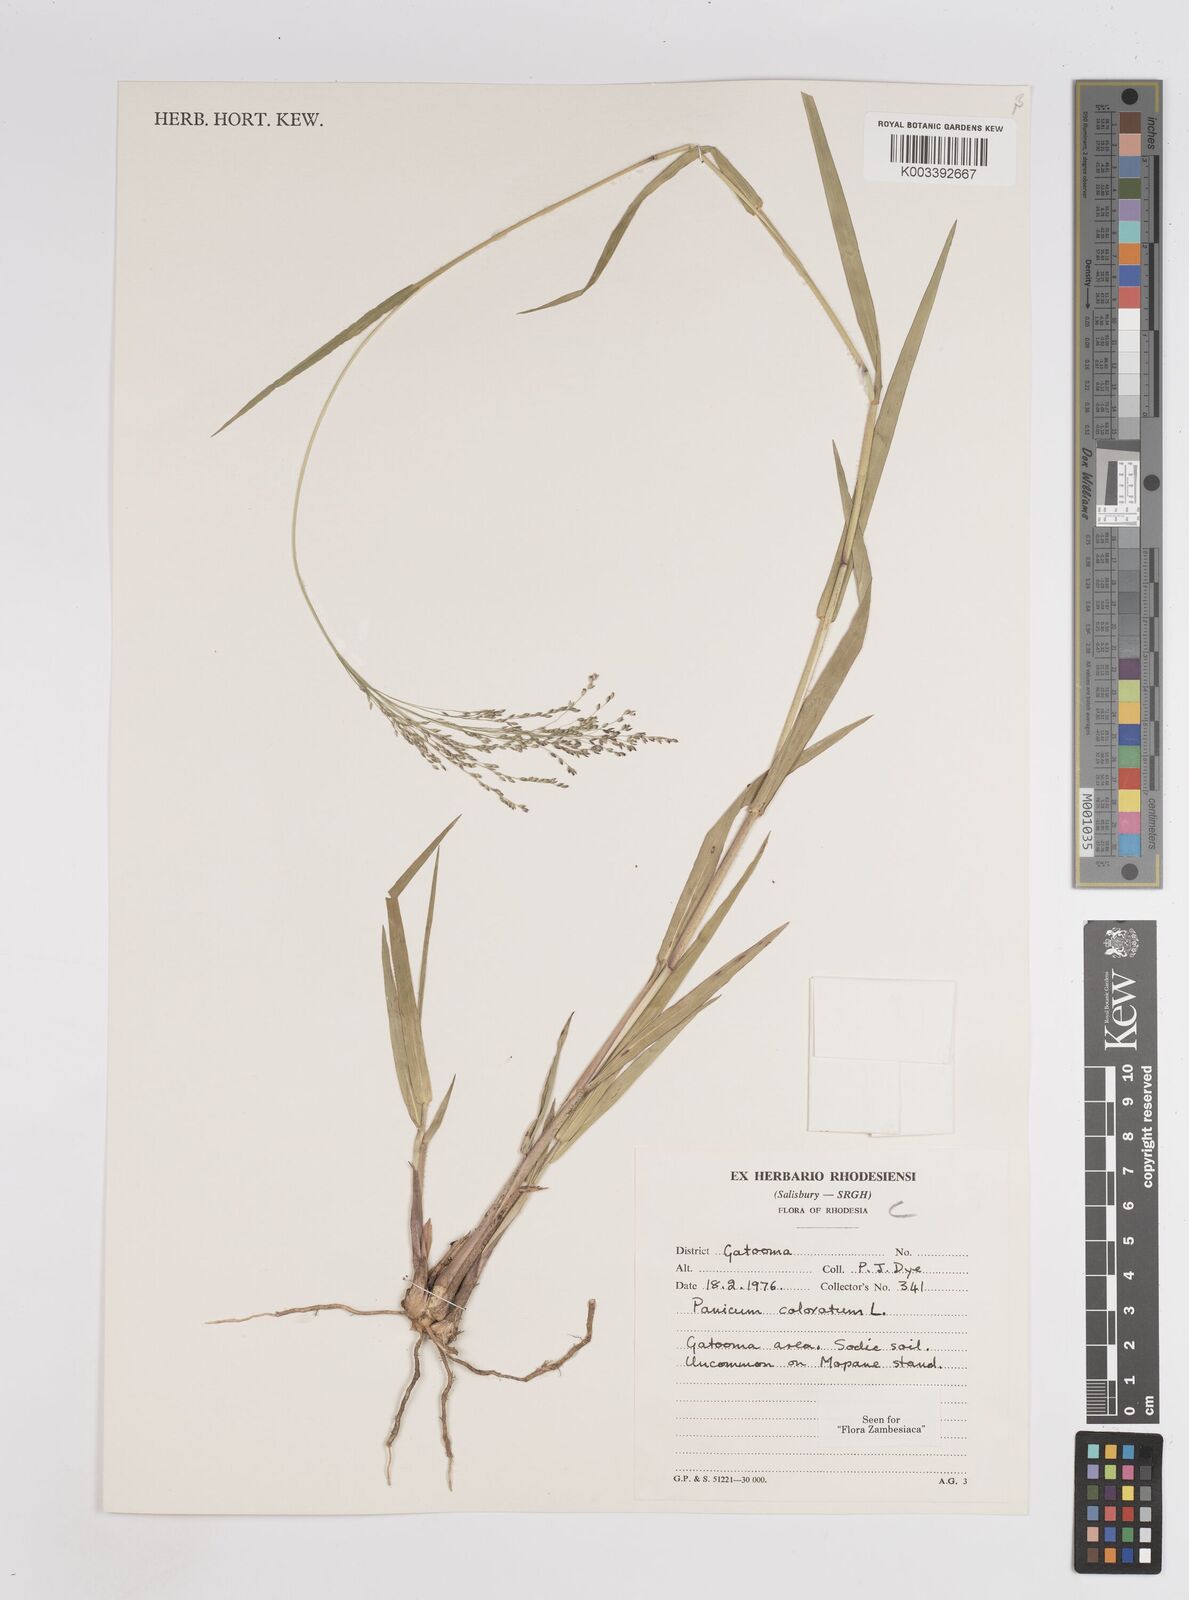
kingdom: Plantae
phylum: Tracheophyta
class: Liliopsida
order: Poales
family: Poaceae
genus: Panicum
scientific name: Panicum coloratum
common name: Kleingrass
